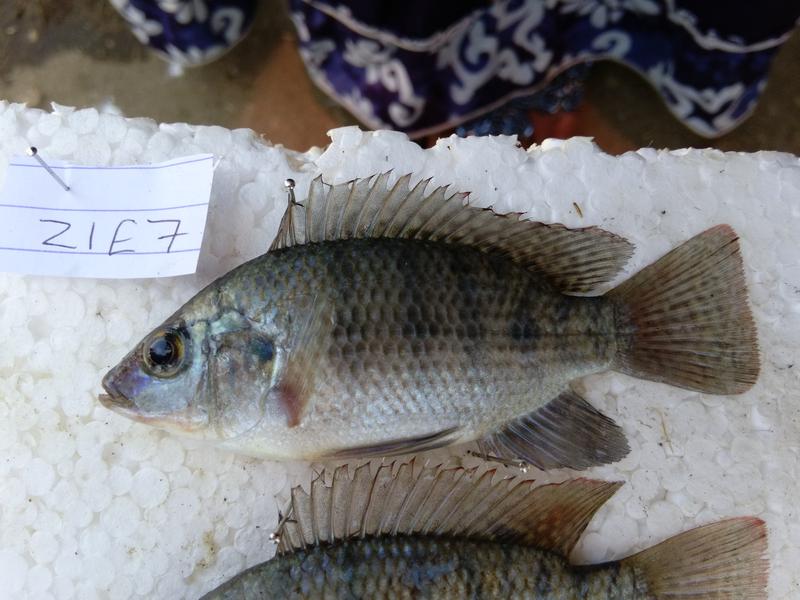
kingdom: Animalia
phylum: Chordata
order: Perciformes
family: Cichlidae
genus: Oreochromis
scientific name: Oreochromis urolepis
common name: Wami tilapia
